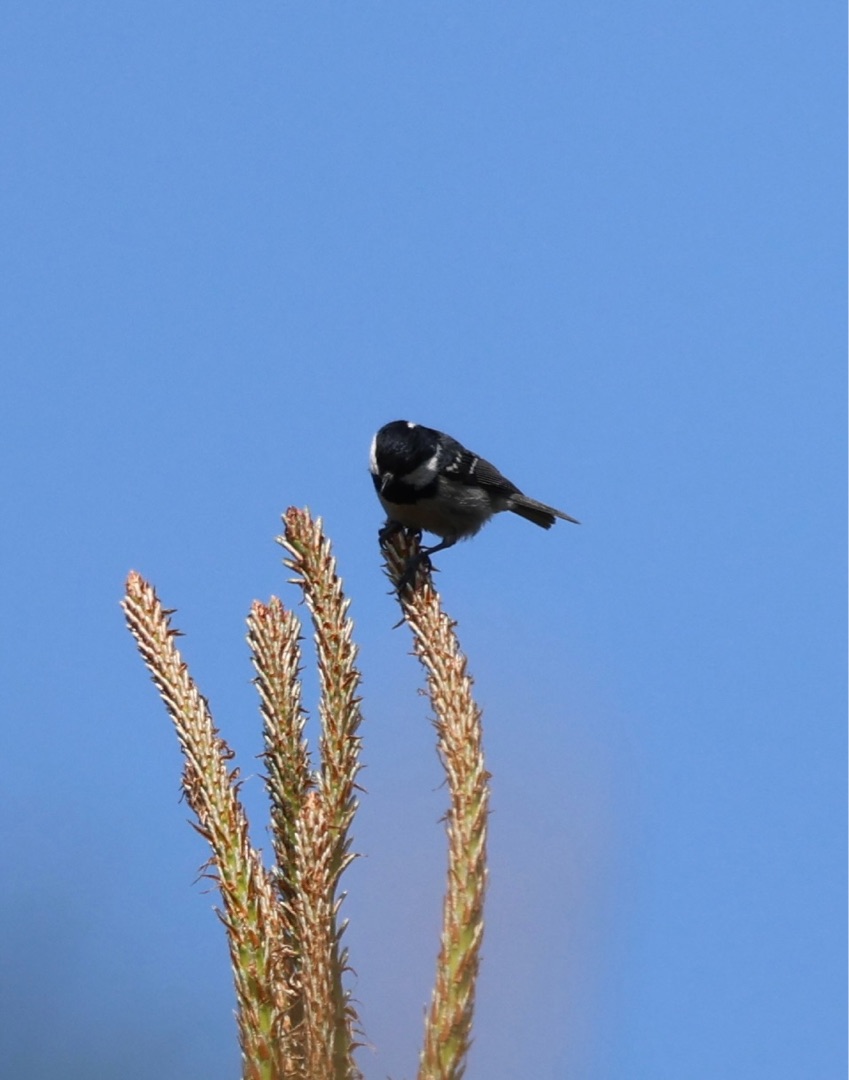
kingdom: Animalia
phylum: Chordata
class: Aves
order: Passeriformes
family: Paridae
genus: Periparus
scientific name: Periparus ater
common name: Sortmejse
